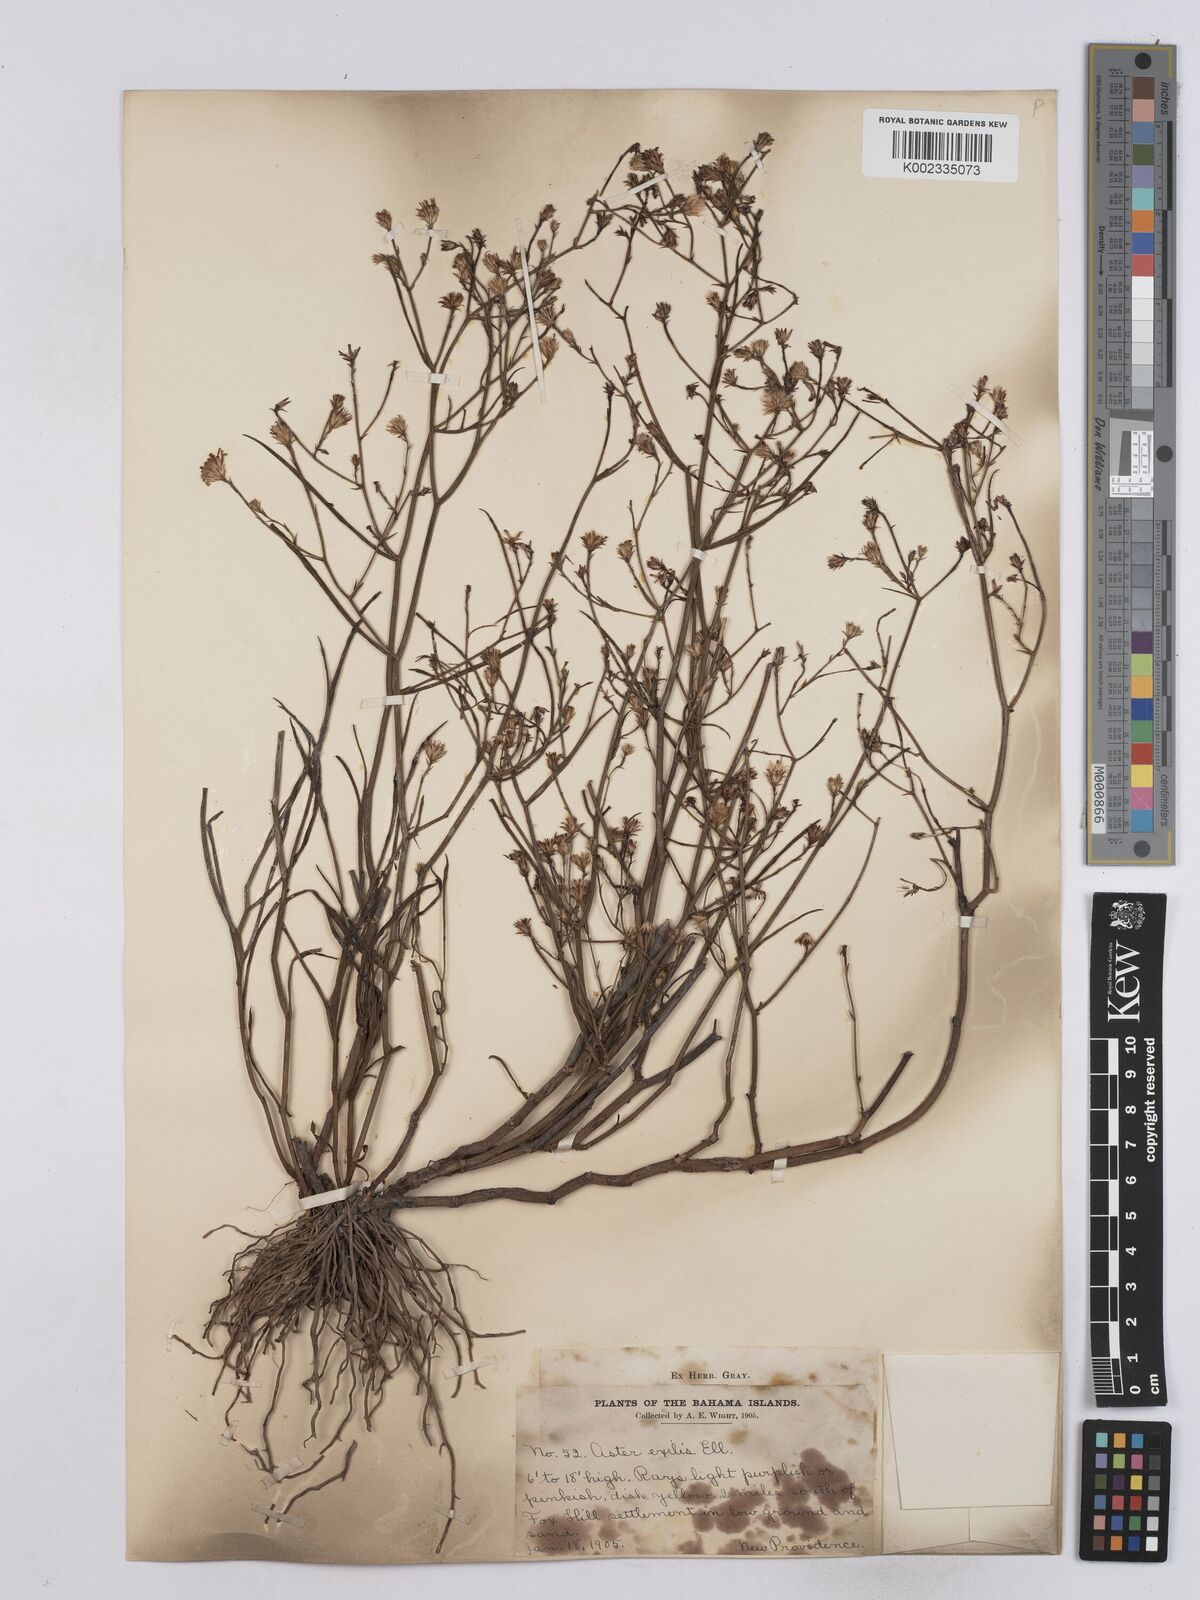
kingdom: Plantae
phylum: Tracheophyta
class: Magnoliopsida
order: Asterales
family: Asteraceae
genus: Symphyotrichum
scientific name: Symphyotrichum tenuifolium
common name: Perennial salt-marsh aster
